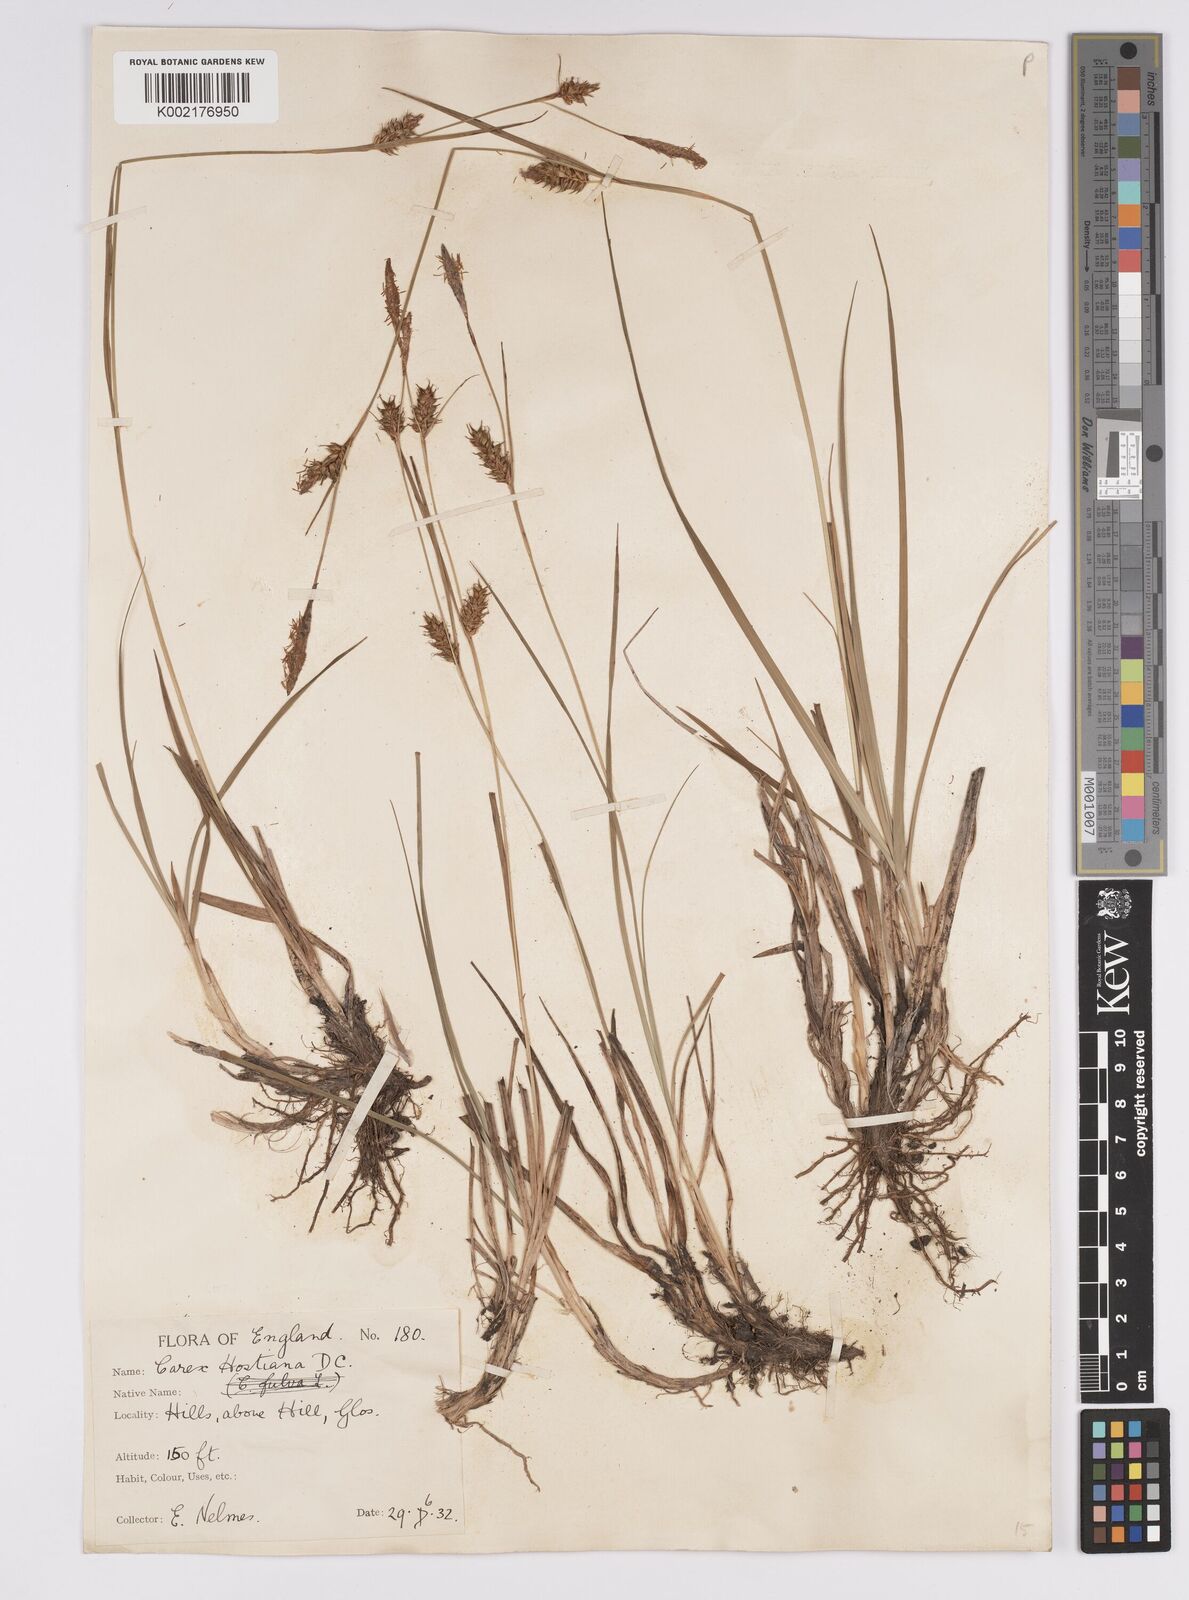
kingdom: Plantae
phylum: Tracheophyta
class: Liliopsida
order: Poales
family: Cyperaceae
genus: Carex
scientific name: Carex hostiana
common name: Tawny sedge
